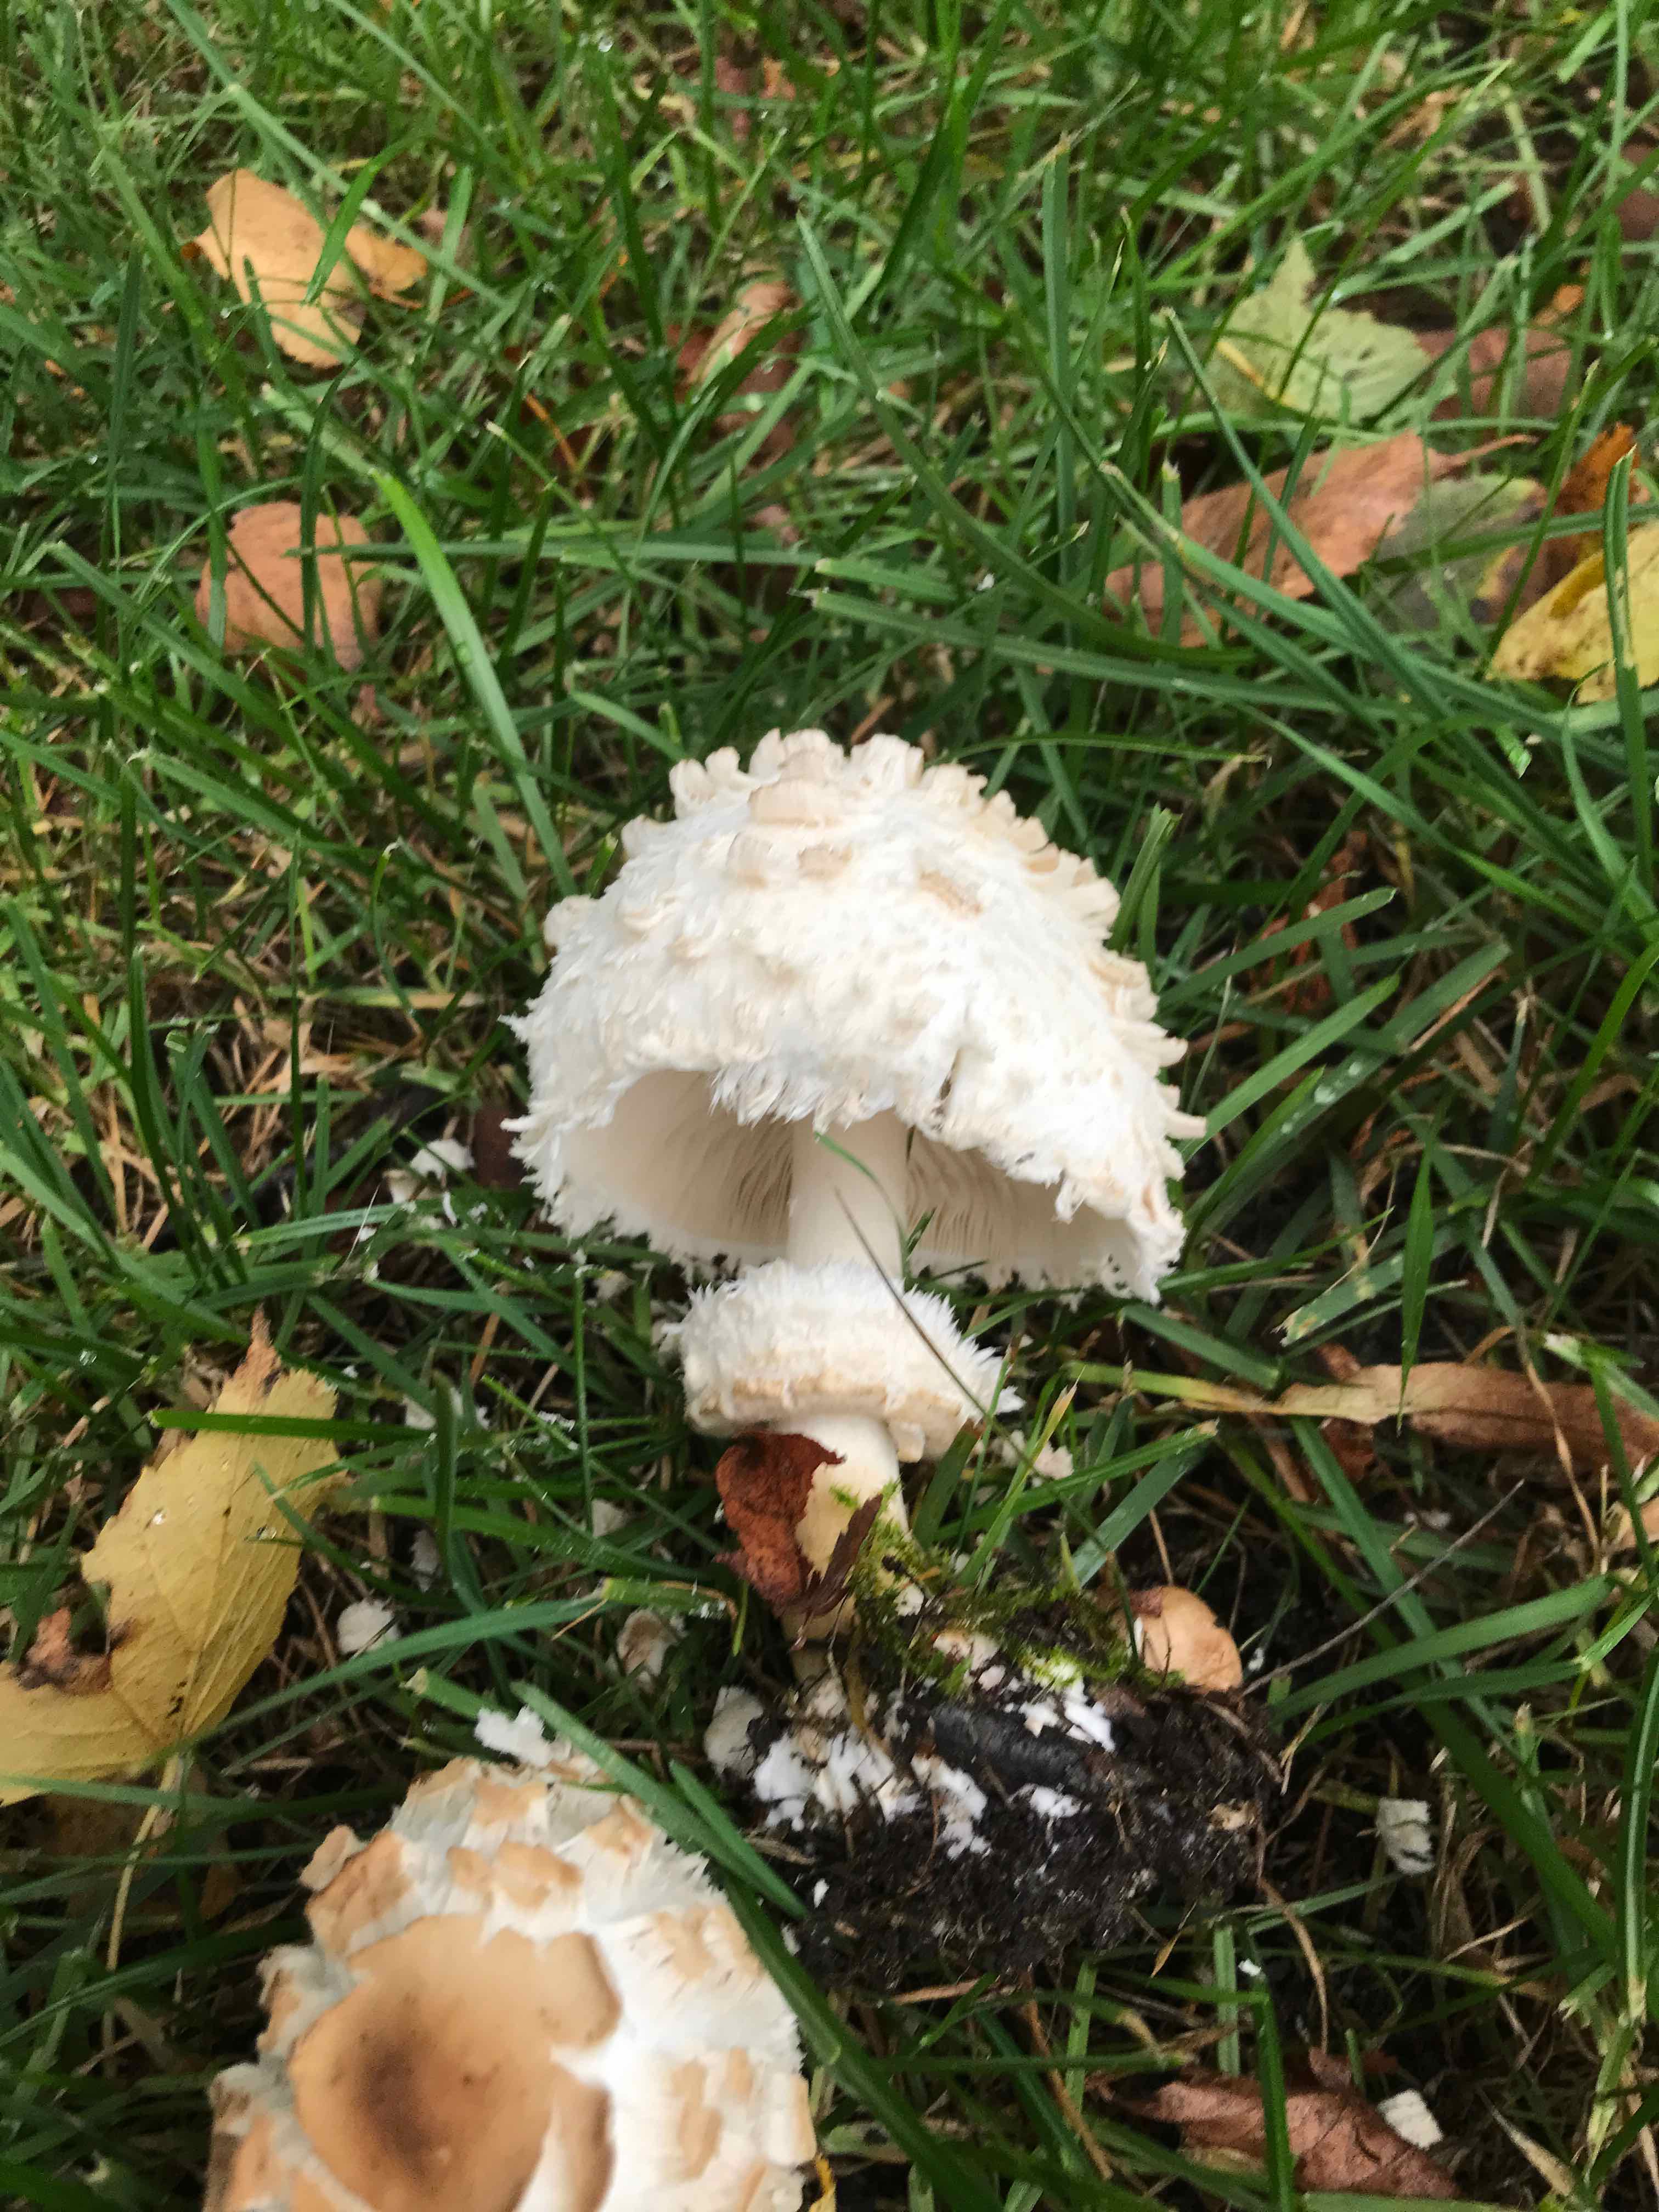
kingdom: Fungi
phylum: Basidiomycota
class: Agaricomycetes
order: Agaricales
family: Agaricaceae
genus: Chlorophyllum
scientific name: Chlorophyllum rhacodes
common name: ægte rabarberhat
